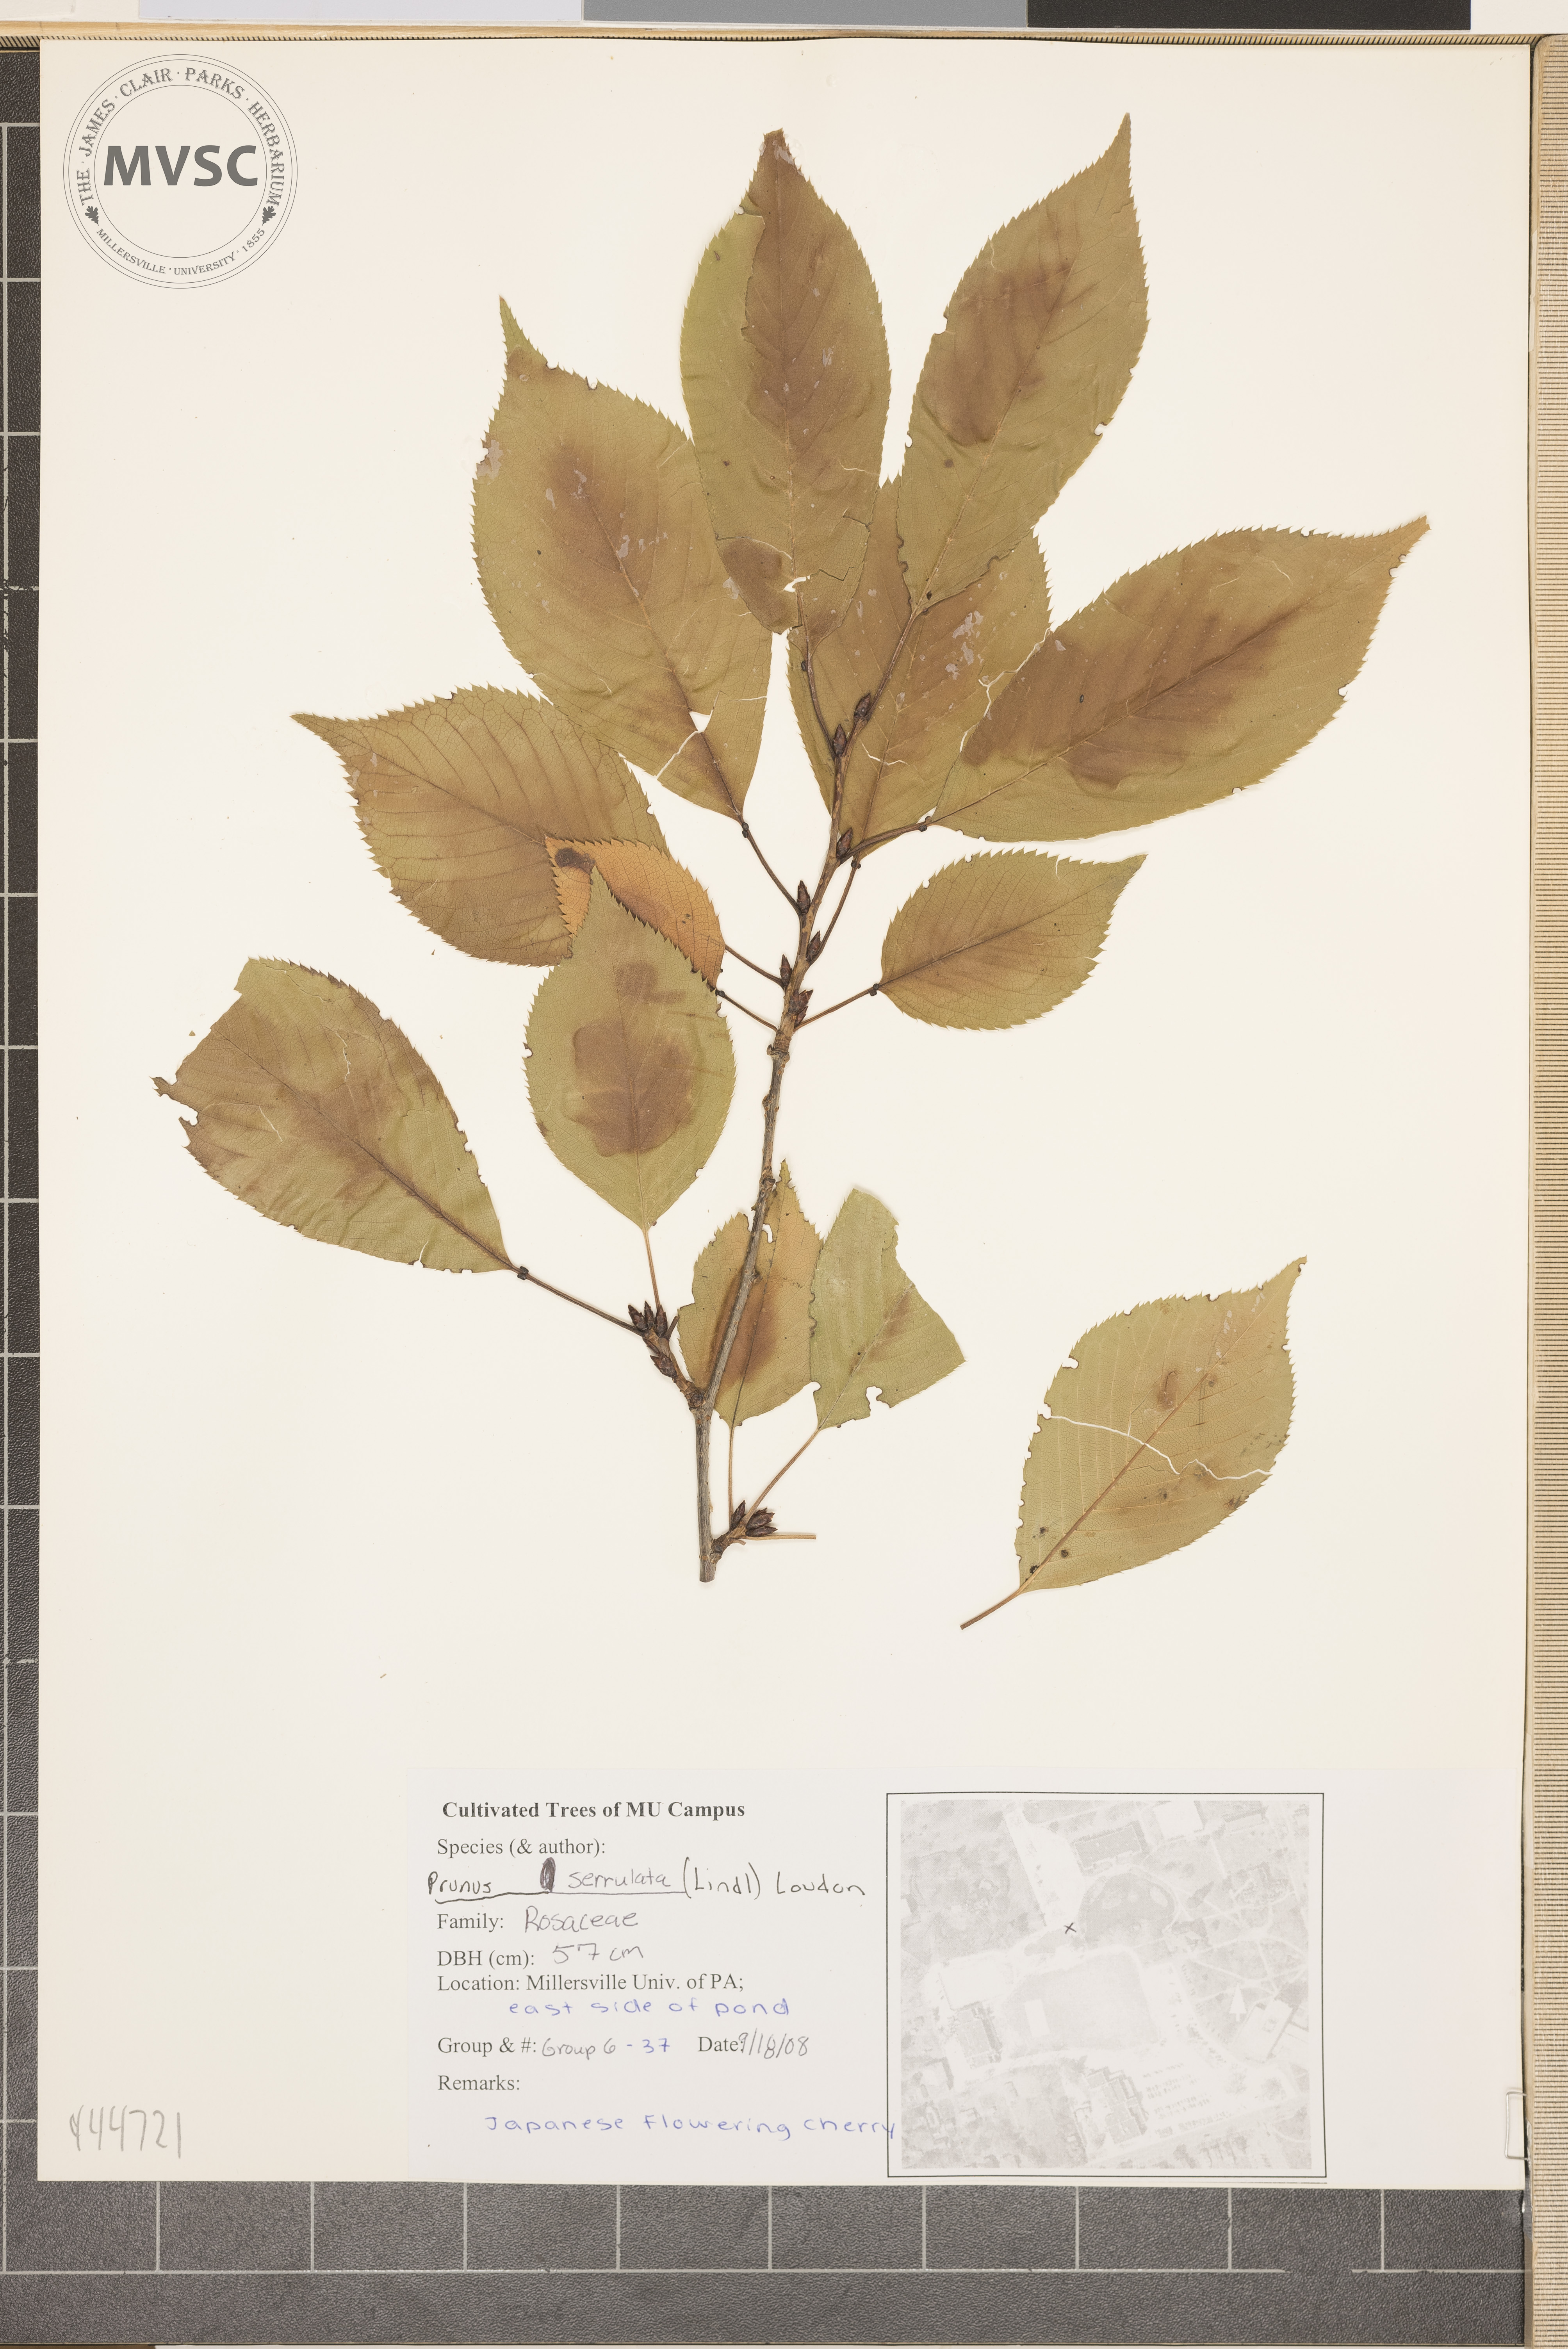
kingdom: Plantae
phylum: Tracheophyta
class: Magnoliopsida
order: Rosales
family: Rosaceae
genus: Prunus
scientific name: Prunus serrulata
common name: Japanese cherry
